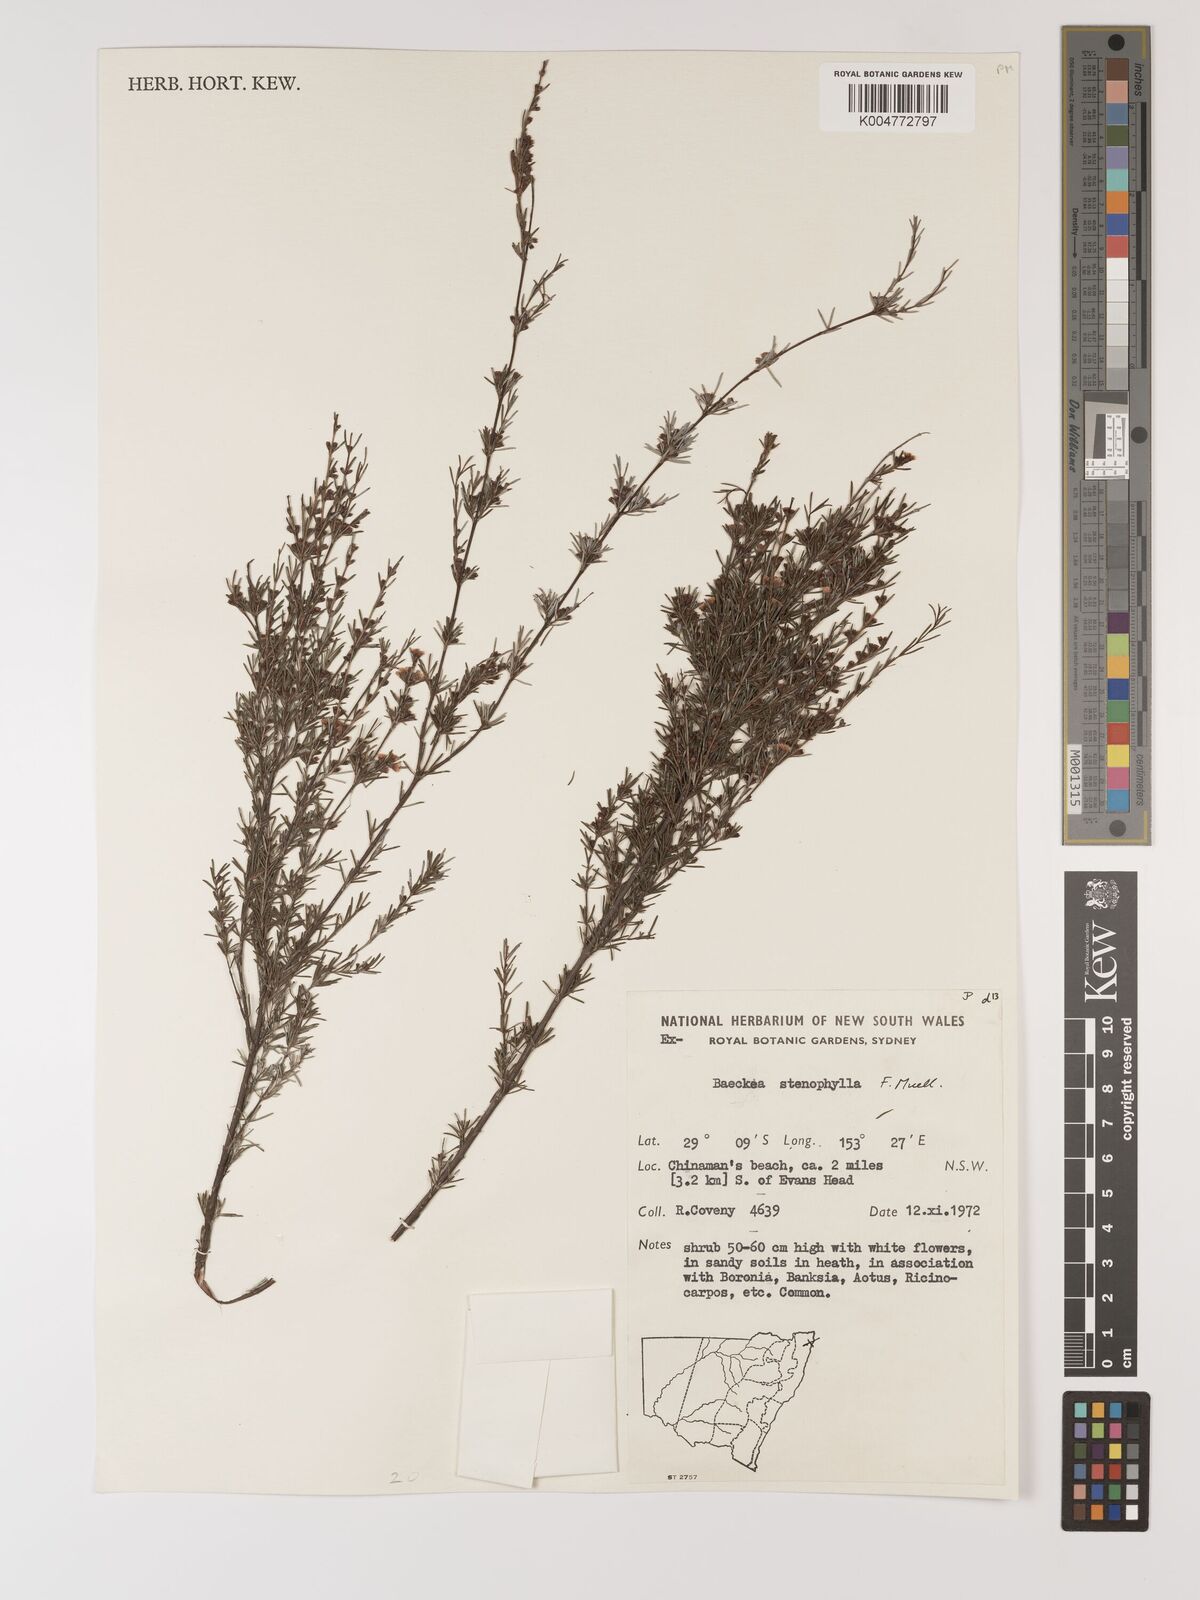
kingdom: Plantae
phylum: Tracheophyta
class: Magnoliopsida
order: Myrtales
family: Myrtaceae
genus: Baeckea
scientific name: Baeckea frutescens
